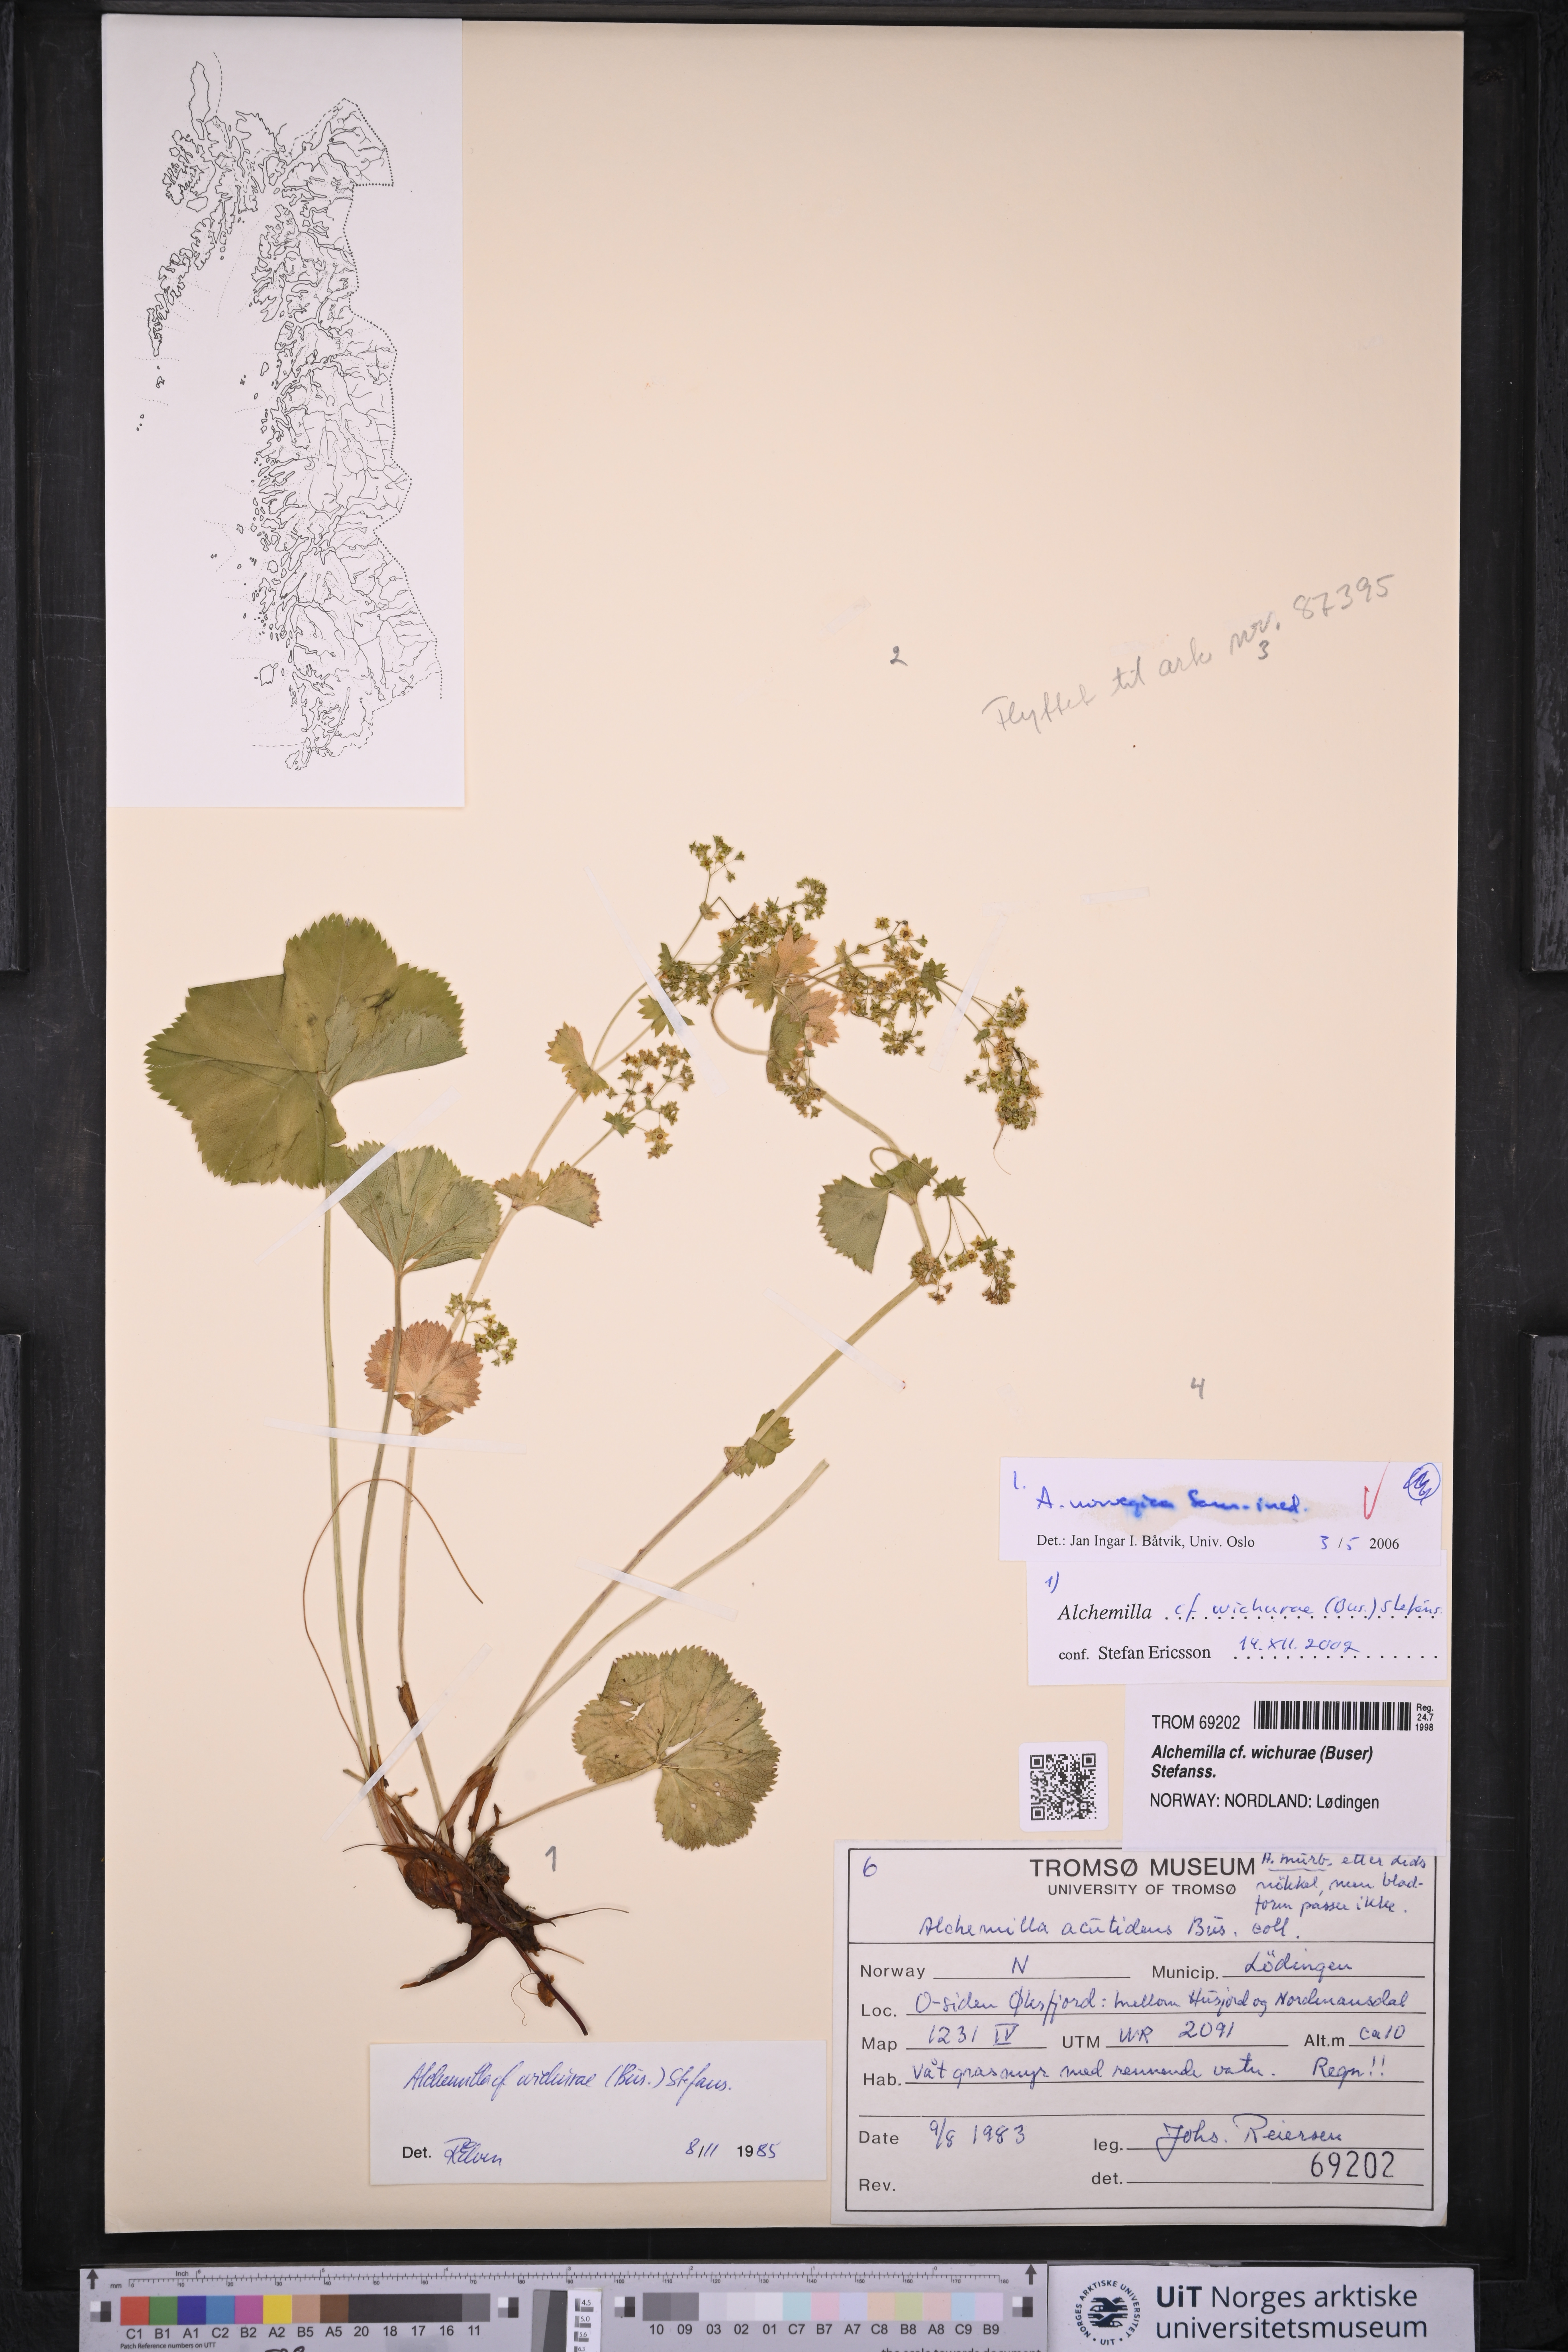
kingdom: Plantae
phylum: Tracheophyta
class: Magnoliopsida
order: Rosales
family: Rosaceae
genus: Alchemilla
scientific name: Alchemilla norvegica
